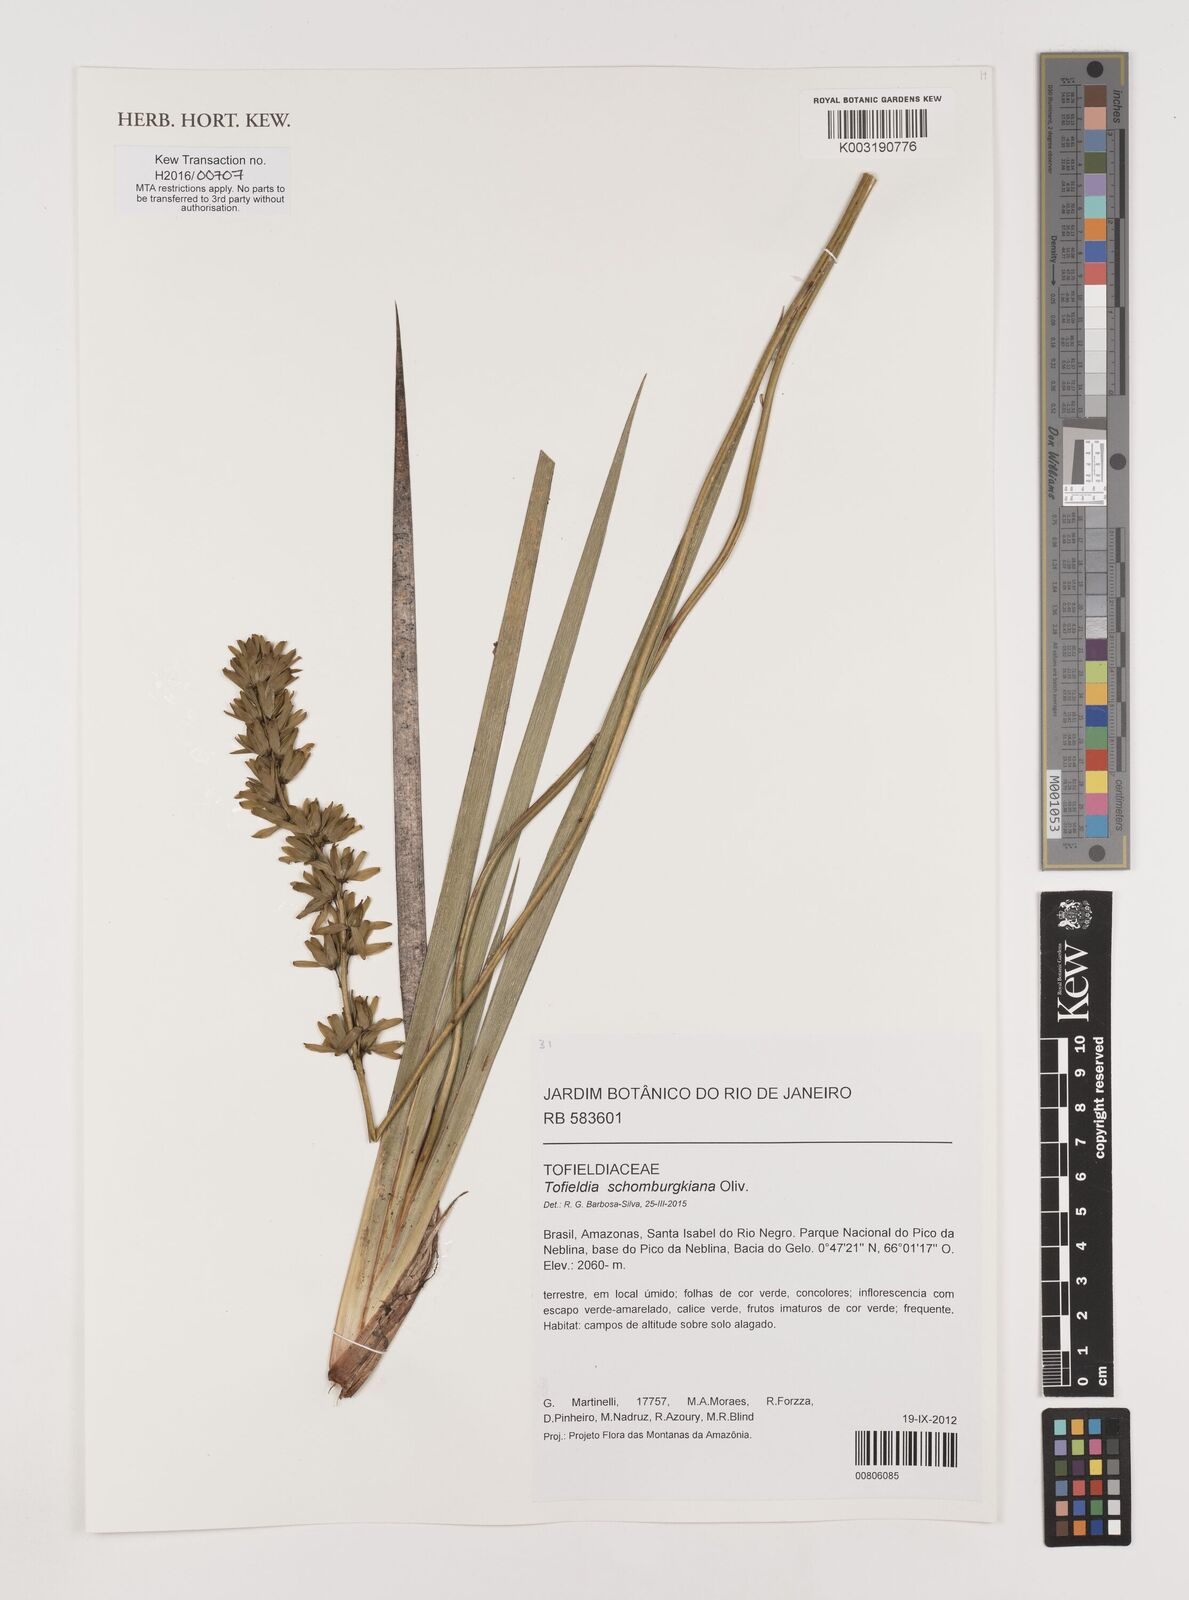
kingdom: Plantae
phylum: Tracheophyta
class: Liliopsida
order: Alismatales
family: Tofieldiaceae
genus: Harperocallis
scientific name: Harperocallis schomburgkiana
